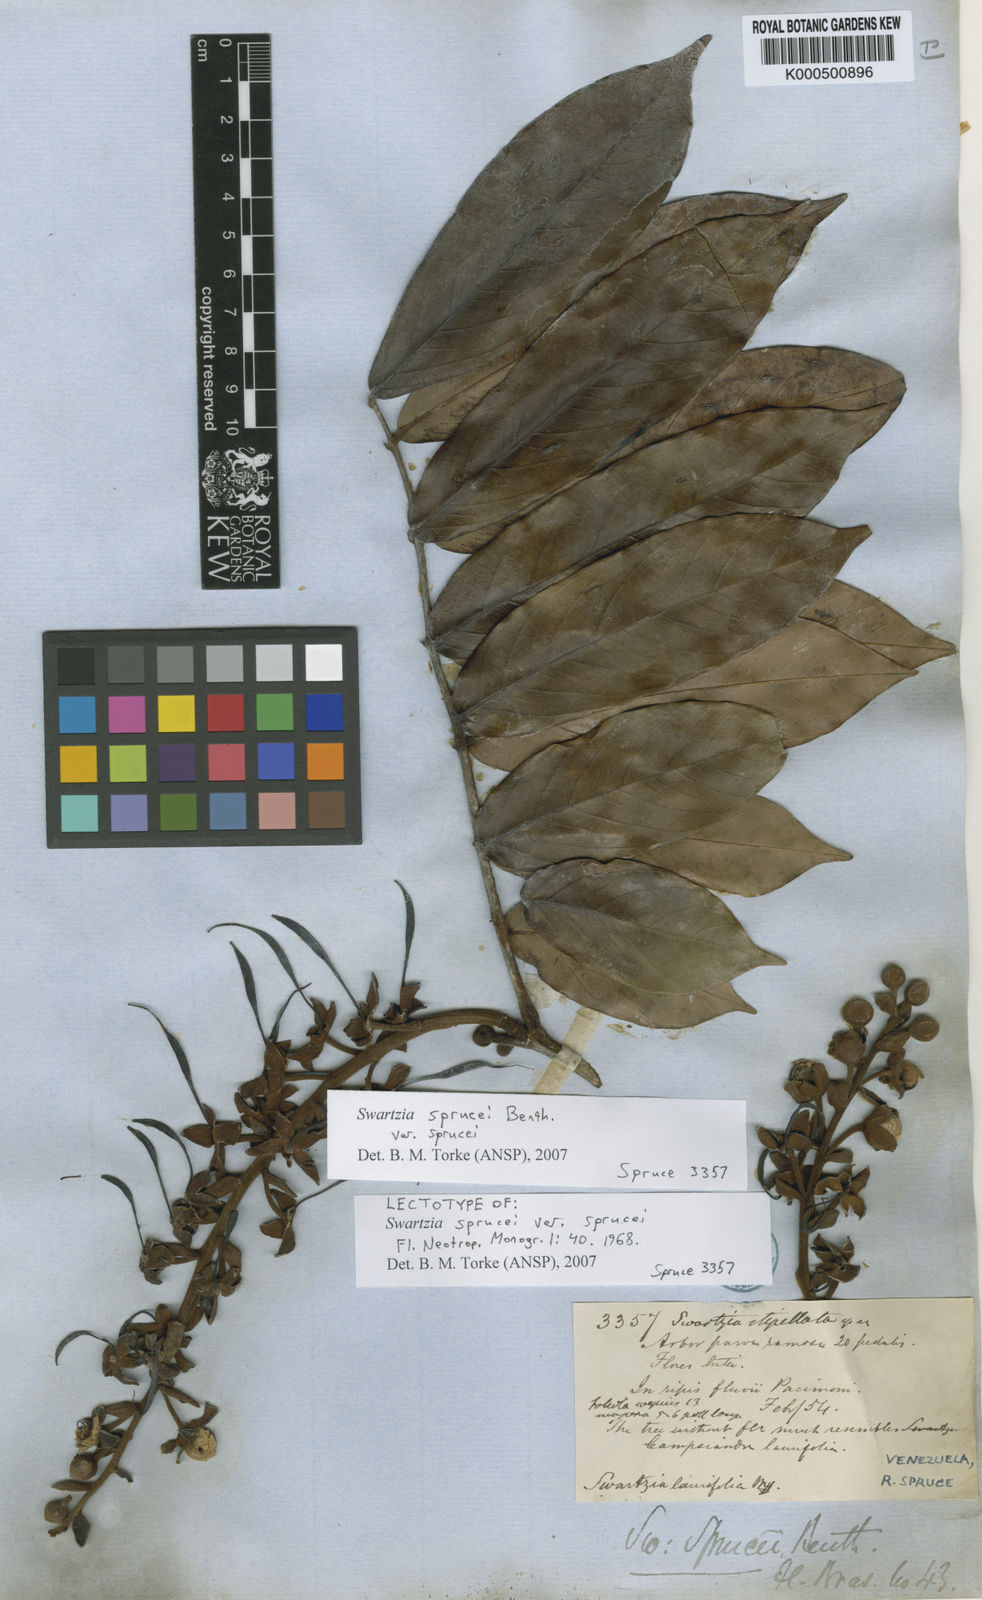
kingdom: Plantae
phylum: Tracheophyta
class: Magnoliopsida
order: Fabales
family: Fabaceae
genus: Swartzia
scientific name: Swartzia sprucei
